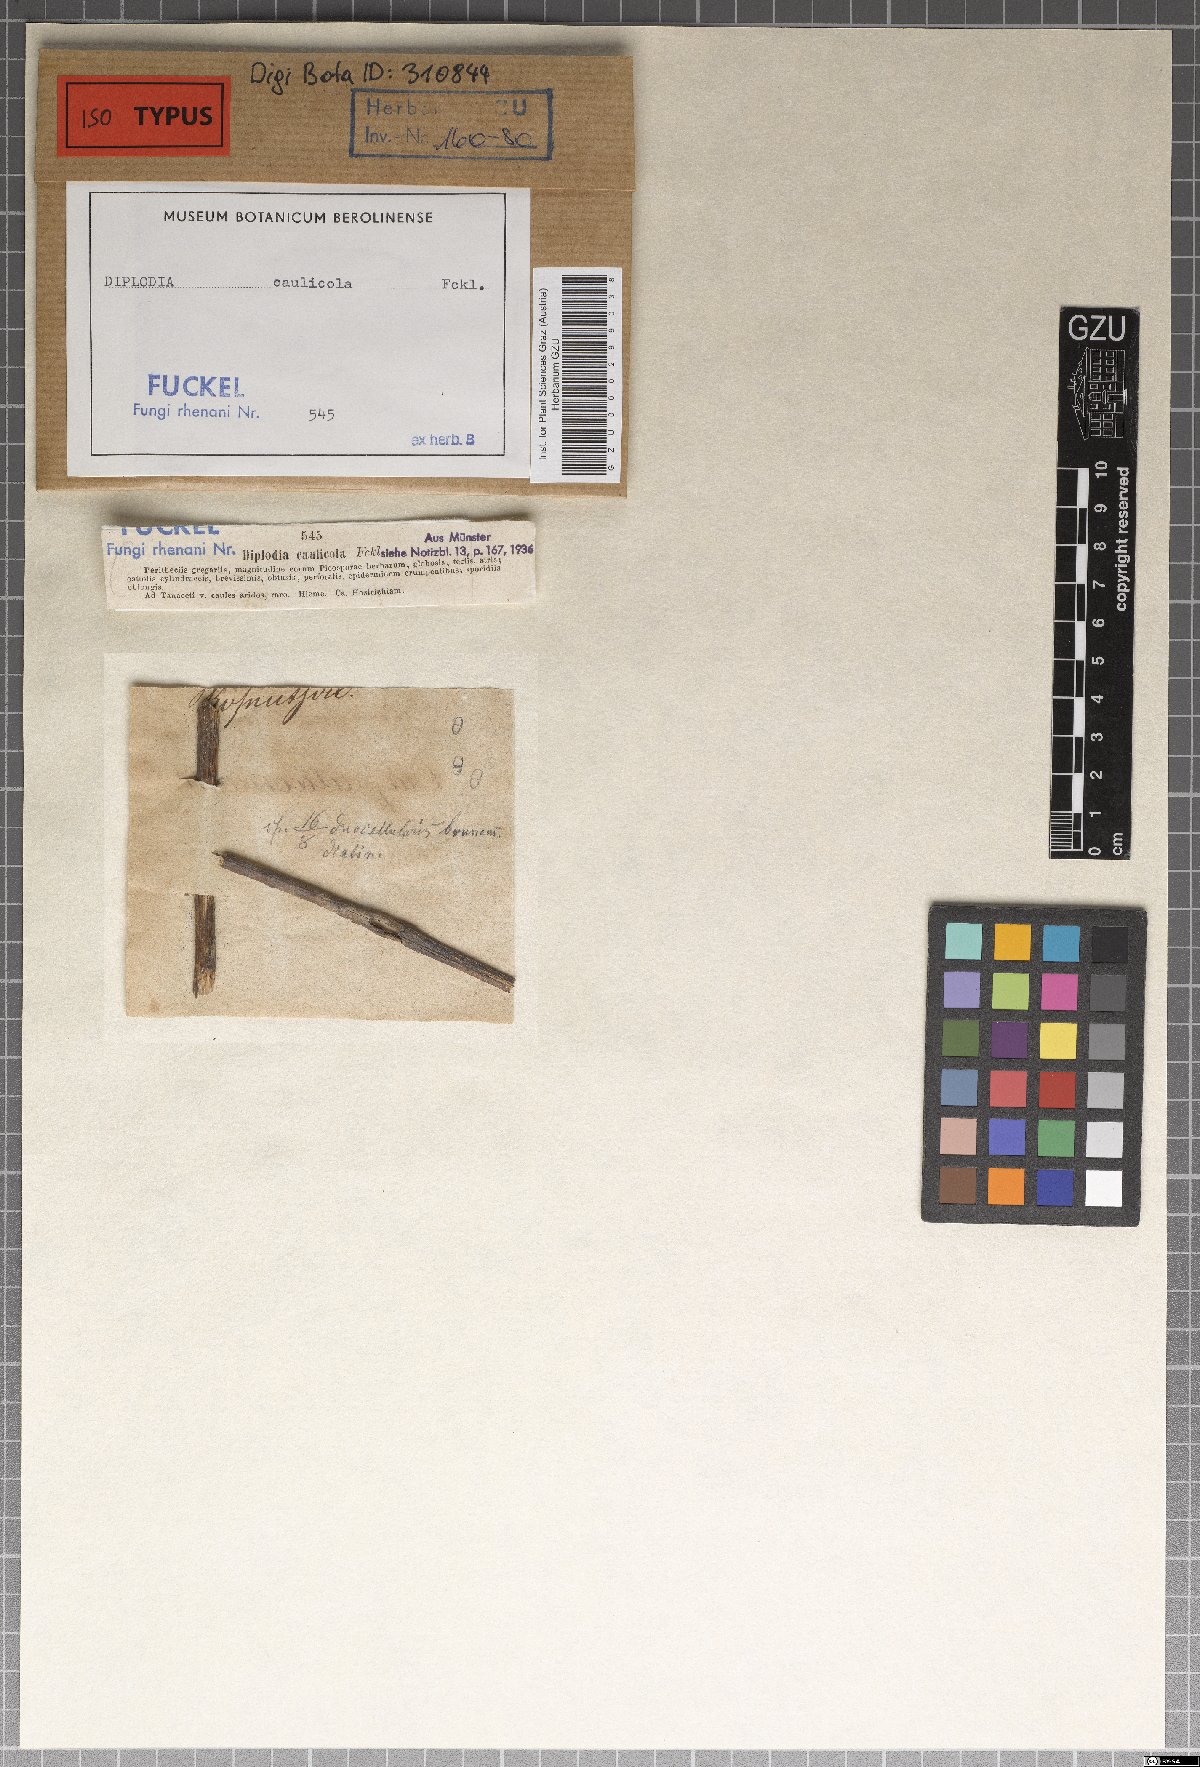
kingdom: Fungi
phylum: Ascomycota
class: Dothideomycetes
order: Botryosphaeriales
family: Botryosphaeriaceae
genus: Diplodia
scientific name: Diplodia
